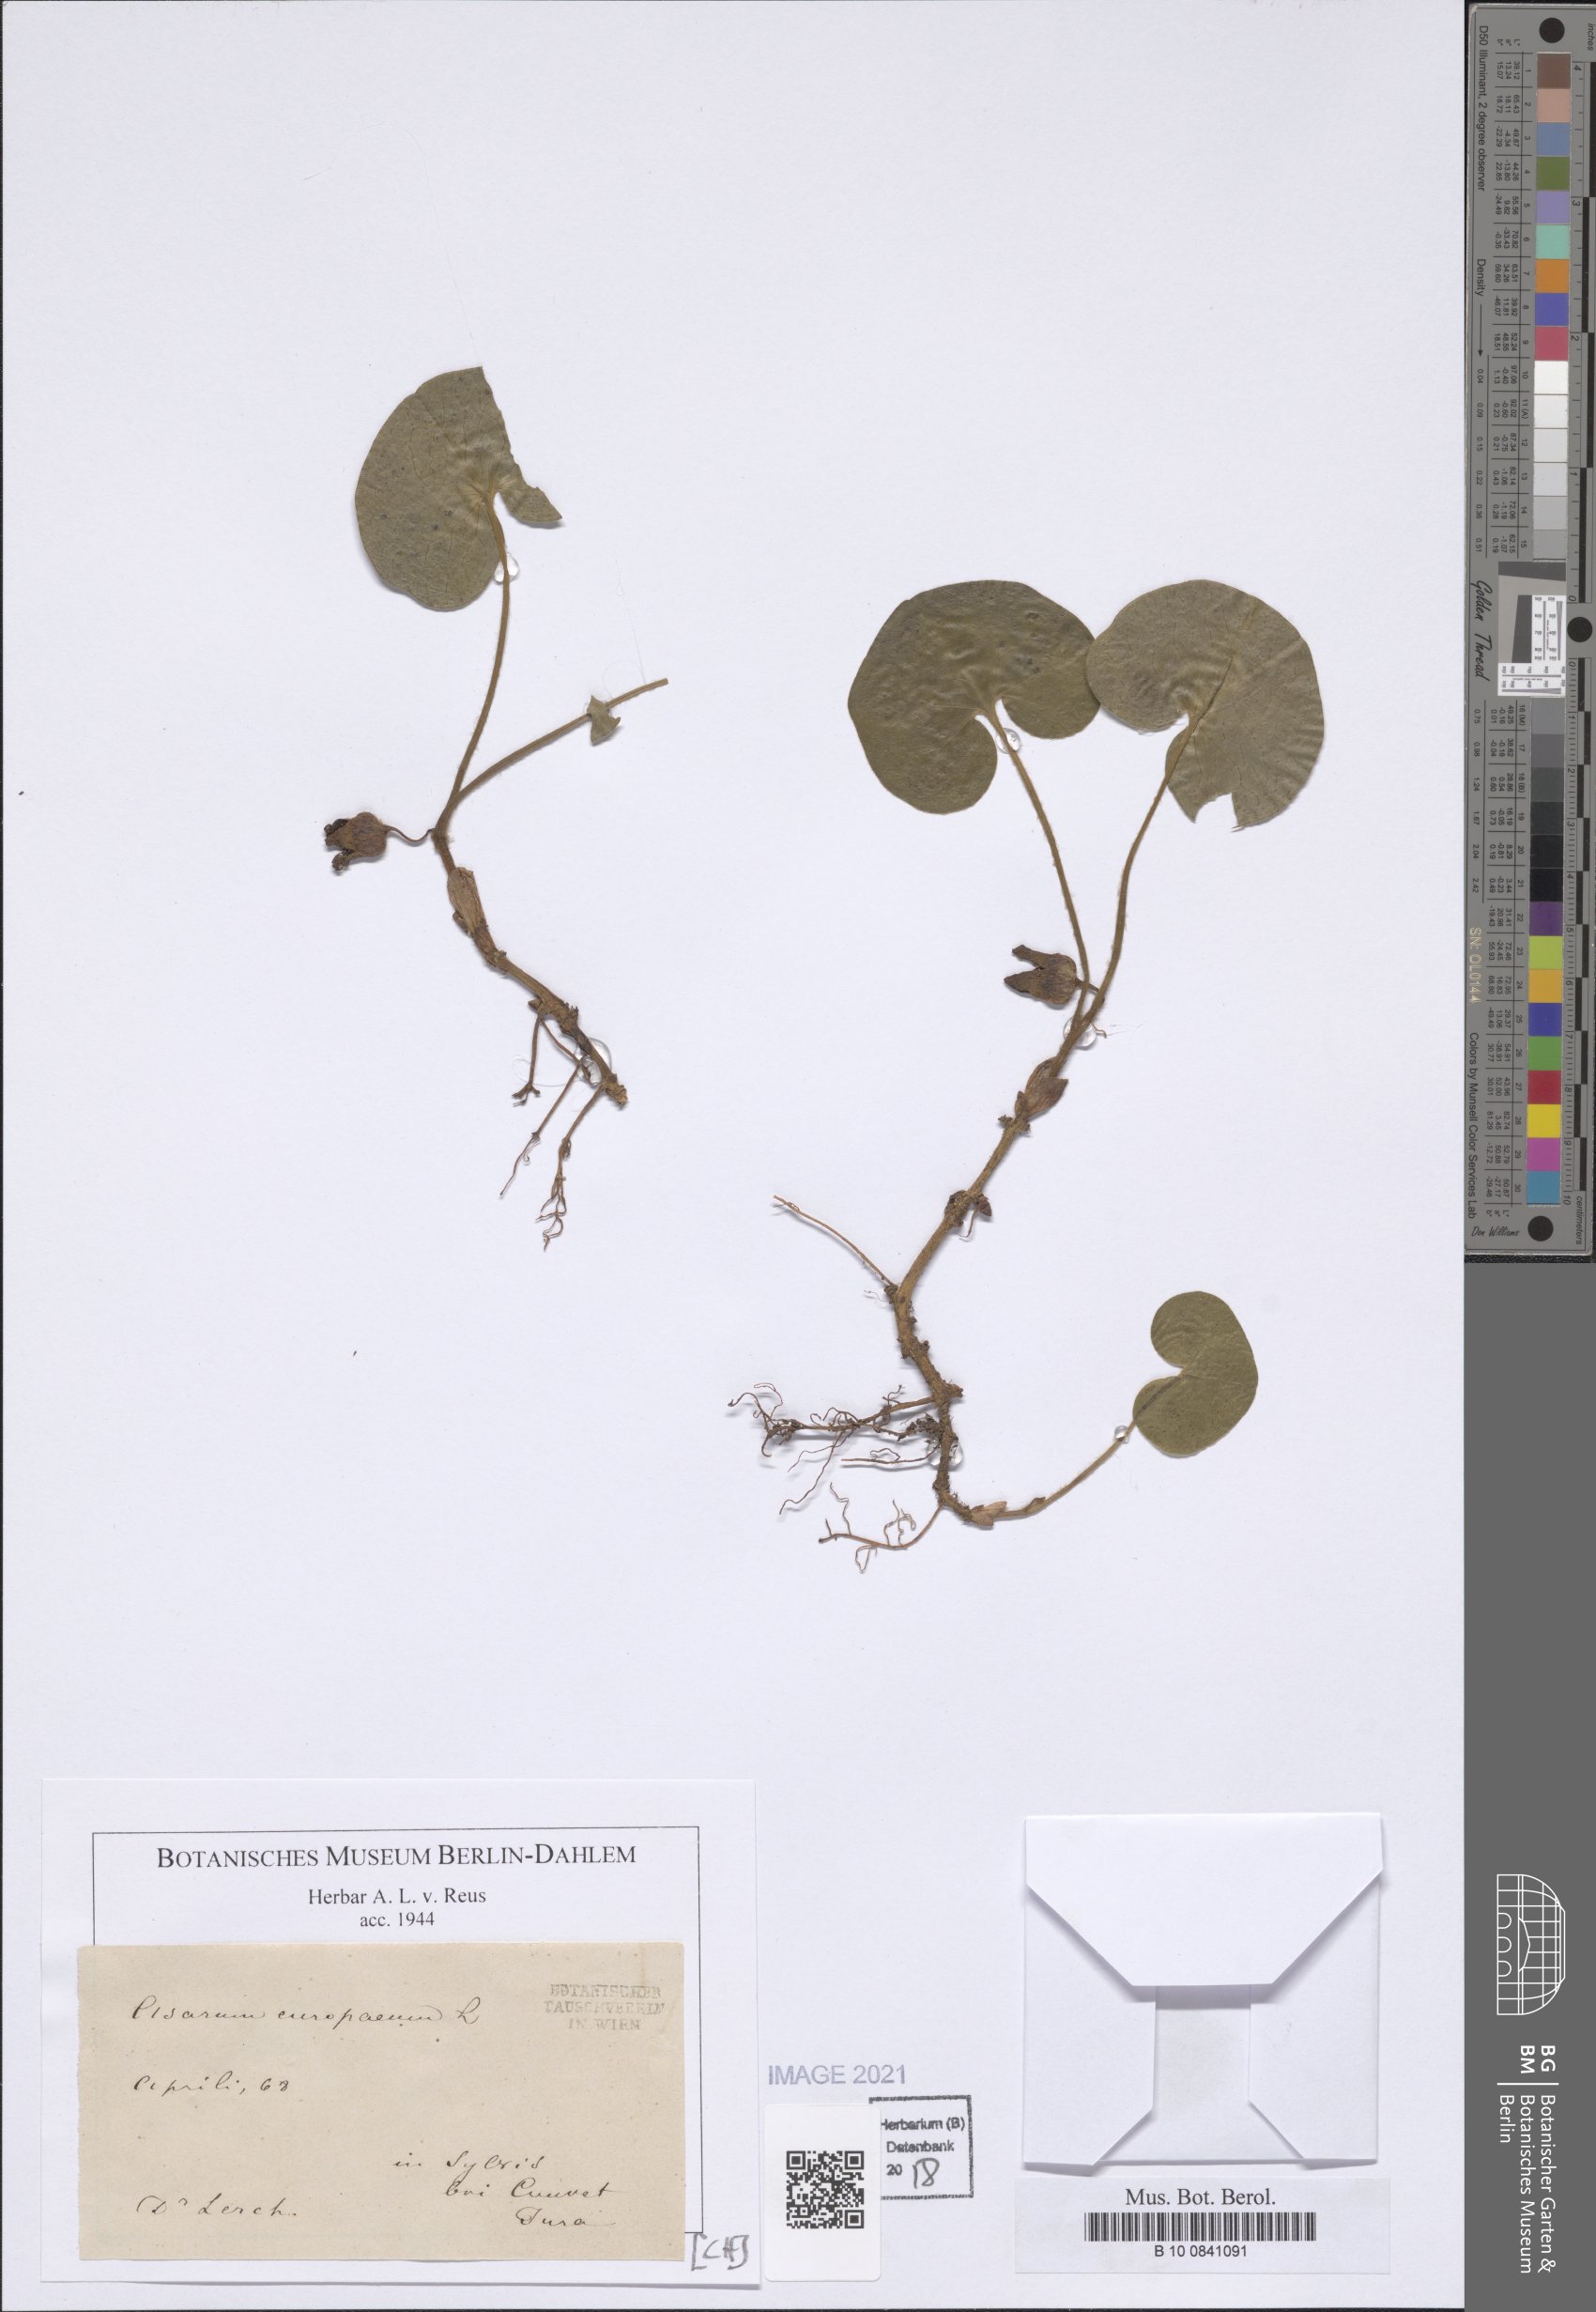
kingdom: Plantae
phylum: Tracheophyta
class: Magnoliopsida
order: Piperales
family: Aristolochiaceae
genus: Asarum
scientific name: Asarum europaeum
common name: Asarabacca
